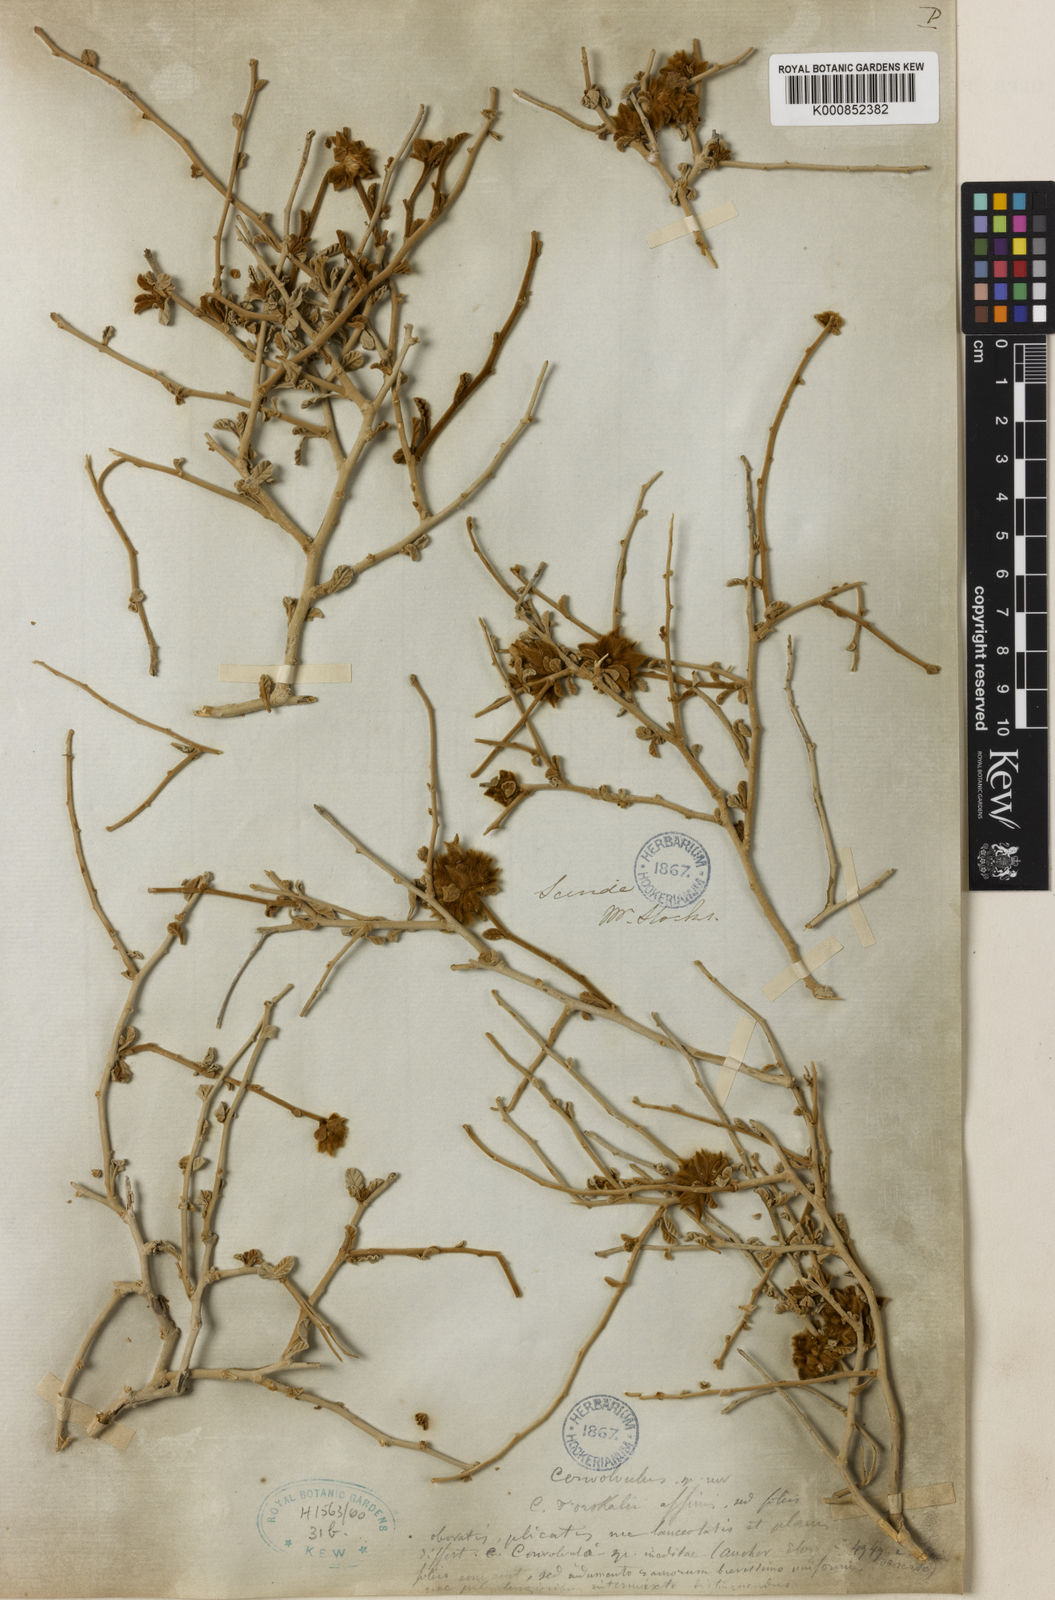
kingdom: Plantae
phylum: Tracheophyta
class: Magnoliopsida
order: Solanales
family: Convolvulaceae
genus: Ipomoea
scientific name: Ipomoea eriocarpa
